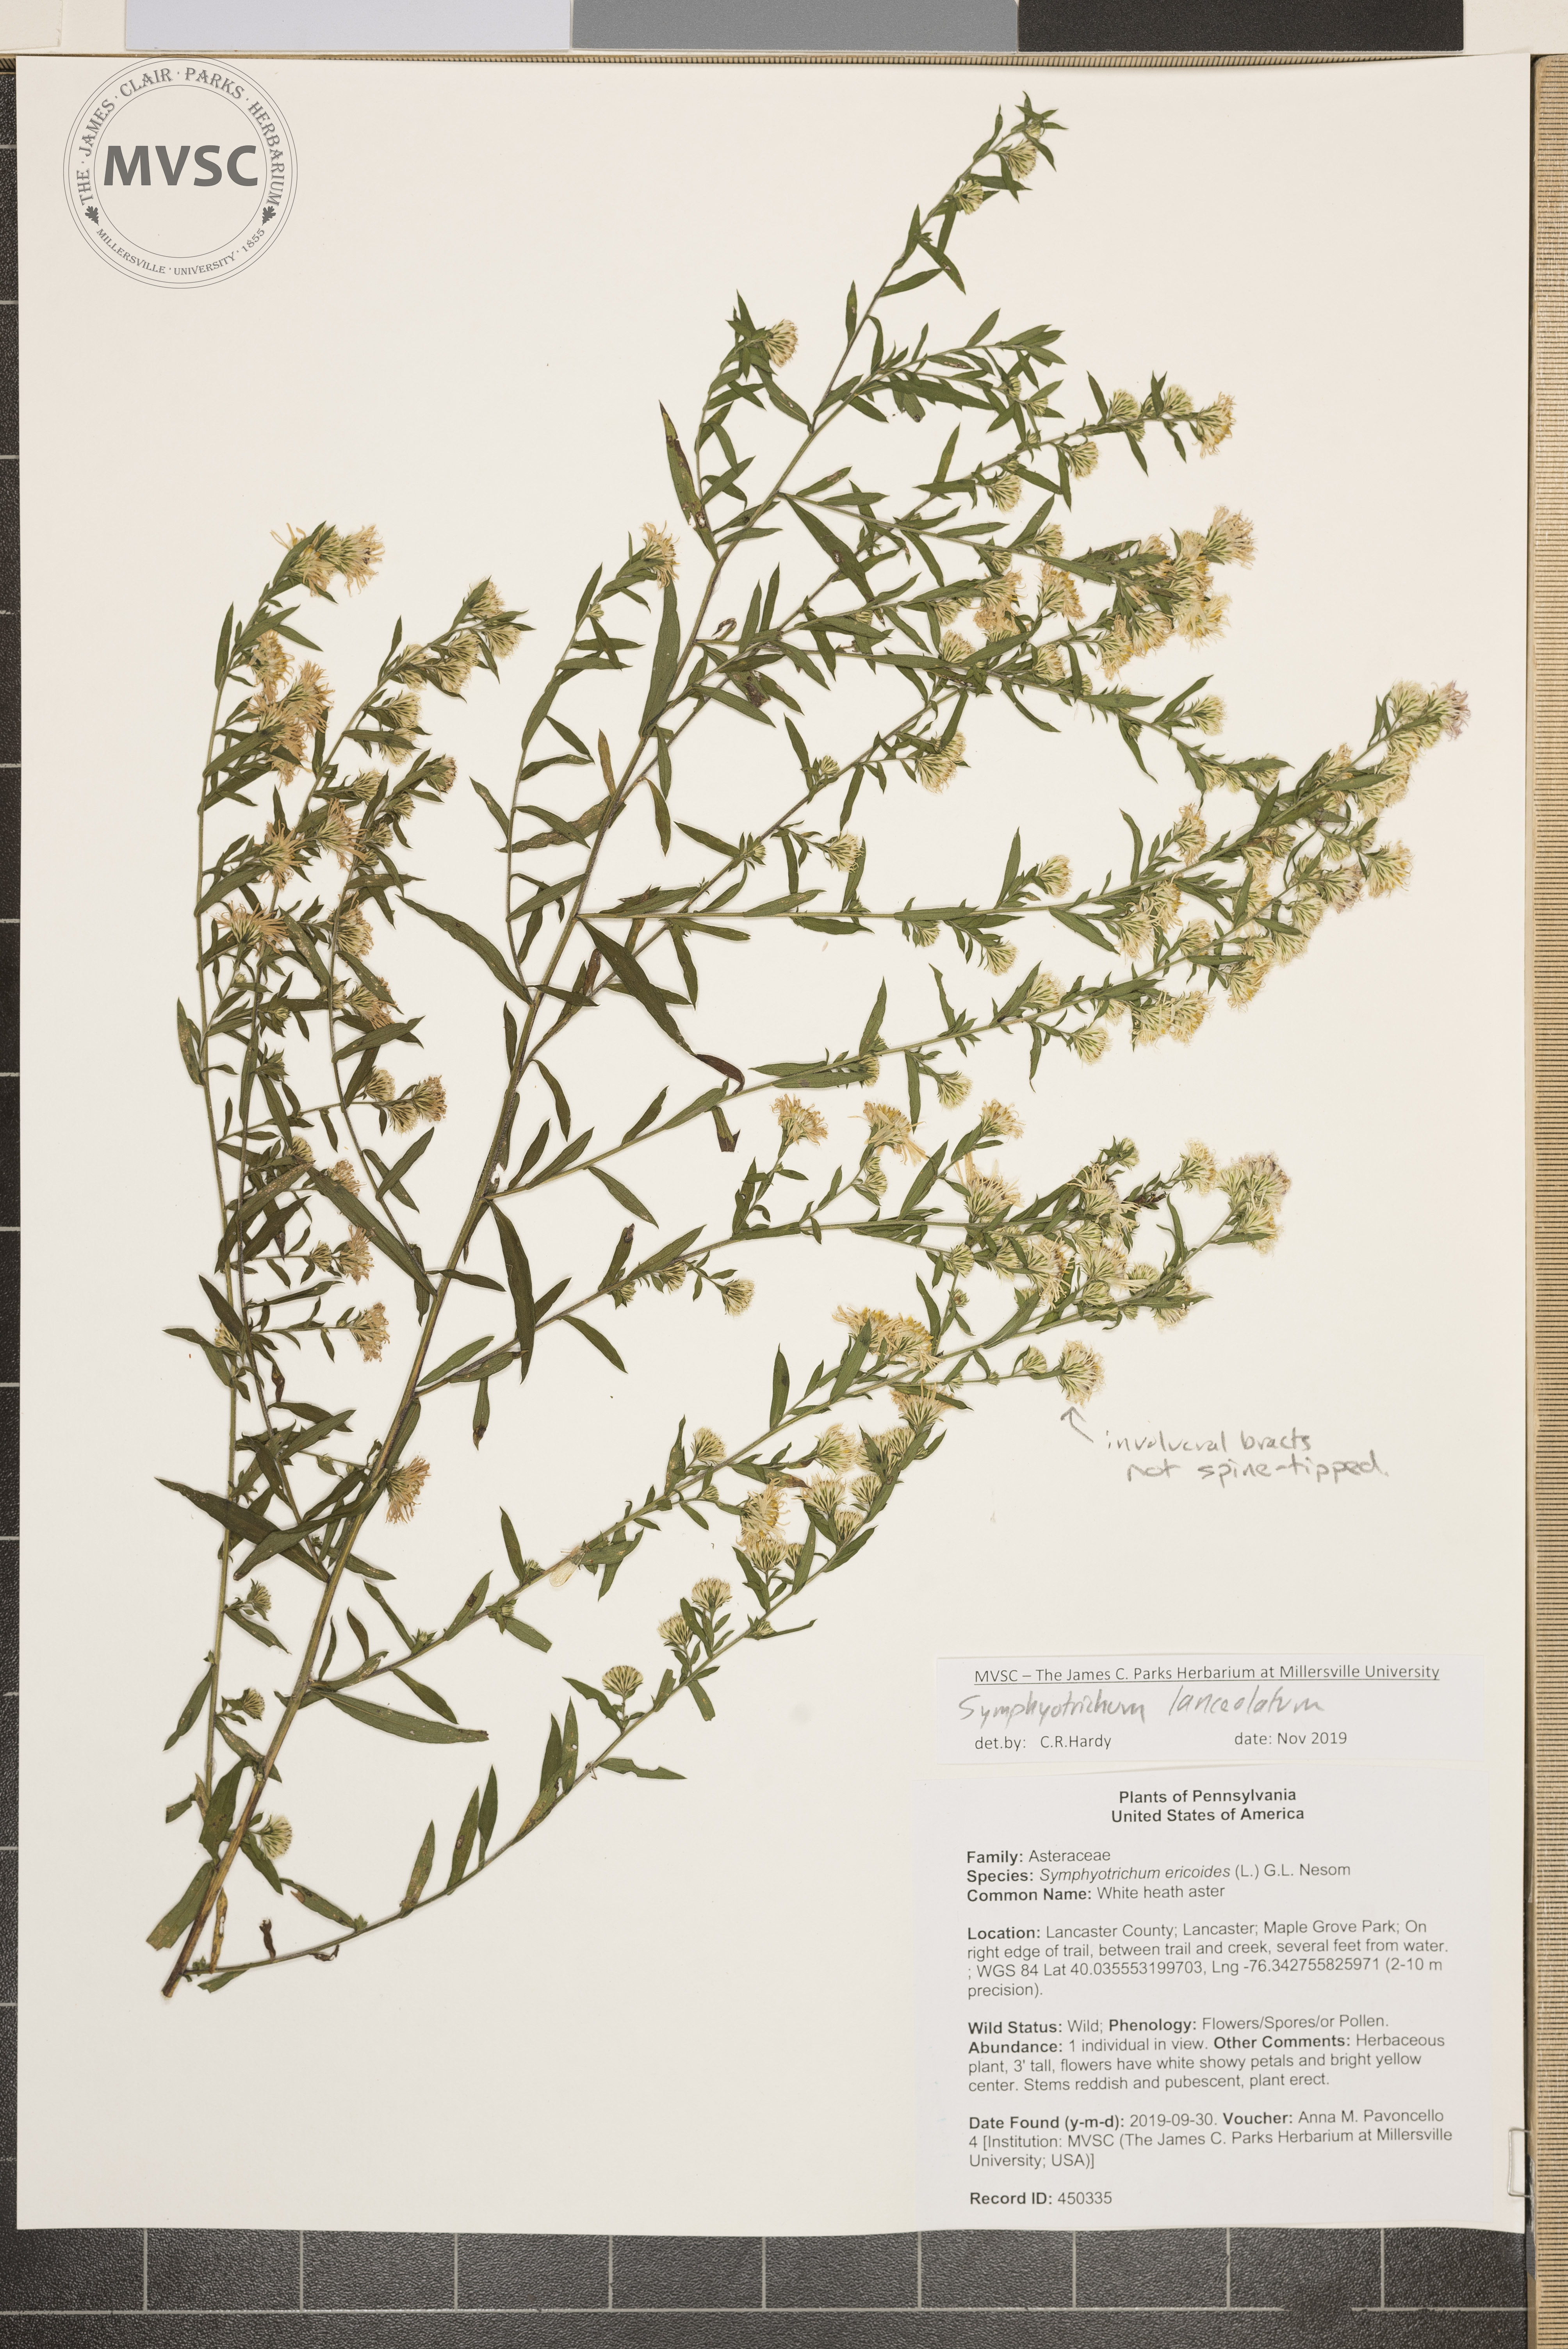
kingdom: Plantae
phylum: Tracheophyta
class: Magnoliopsida
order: Asterales
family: Asteraceae
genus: Symphyotrichum
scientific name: Symphyotrichum lanceolatum
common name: Aster
